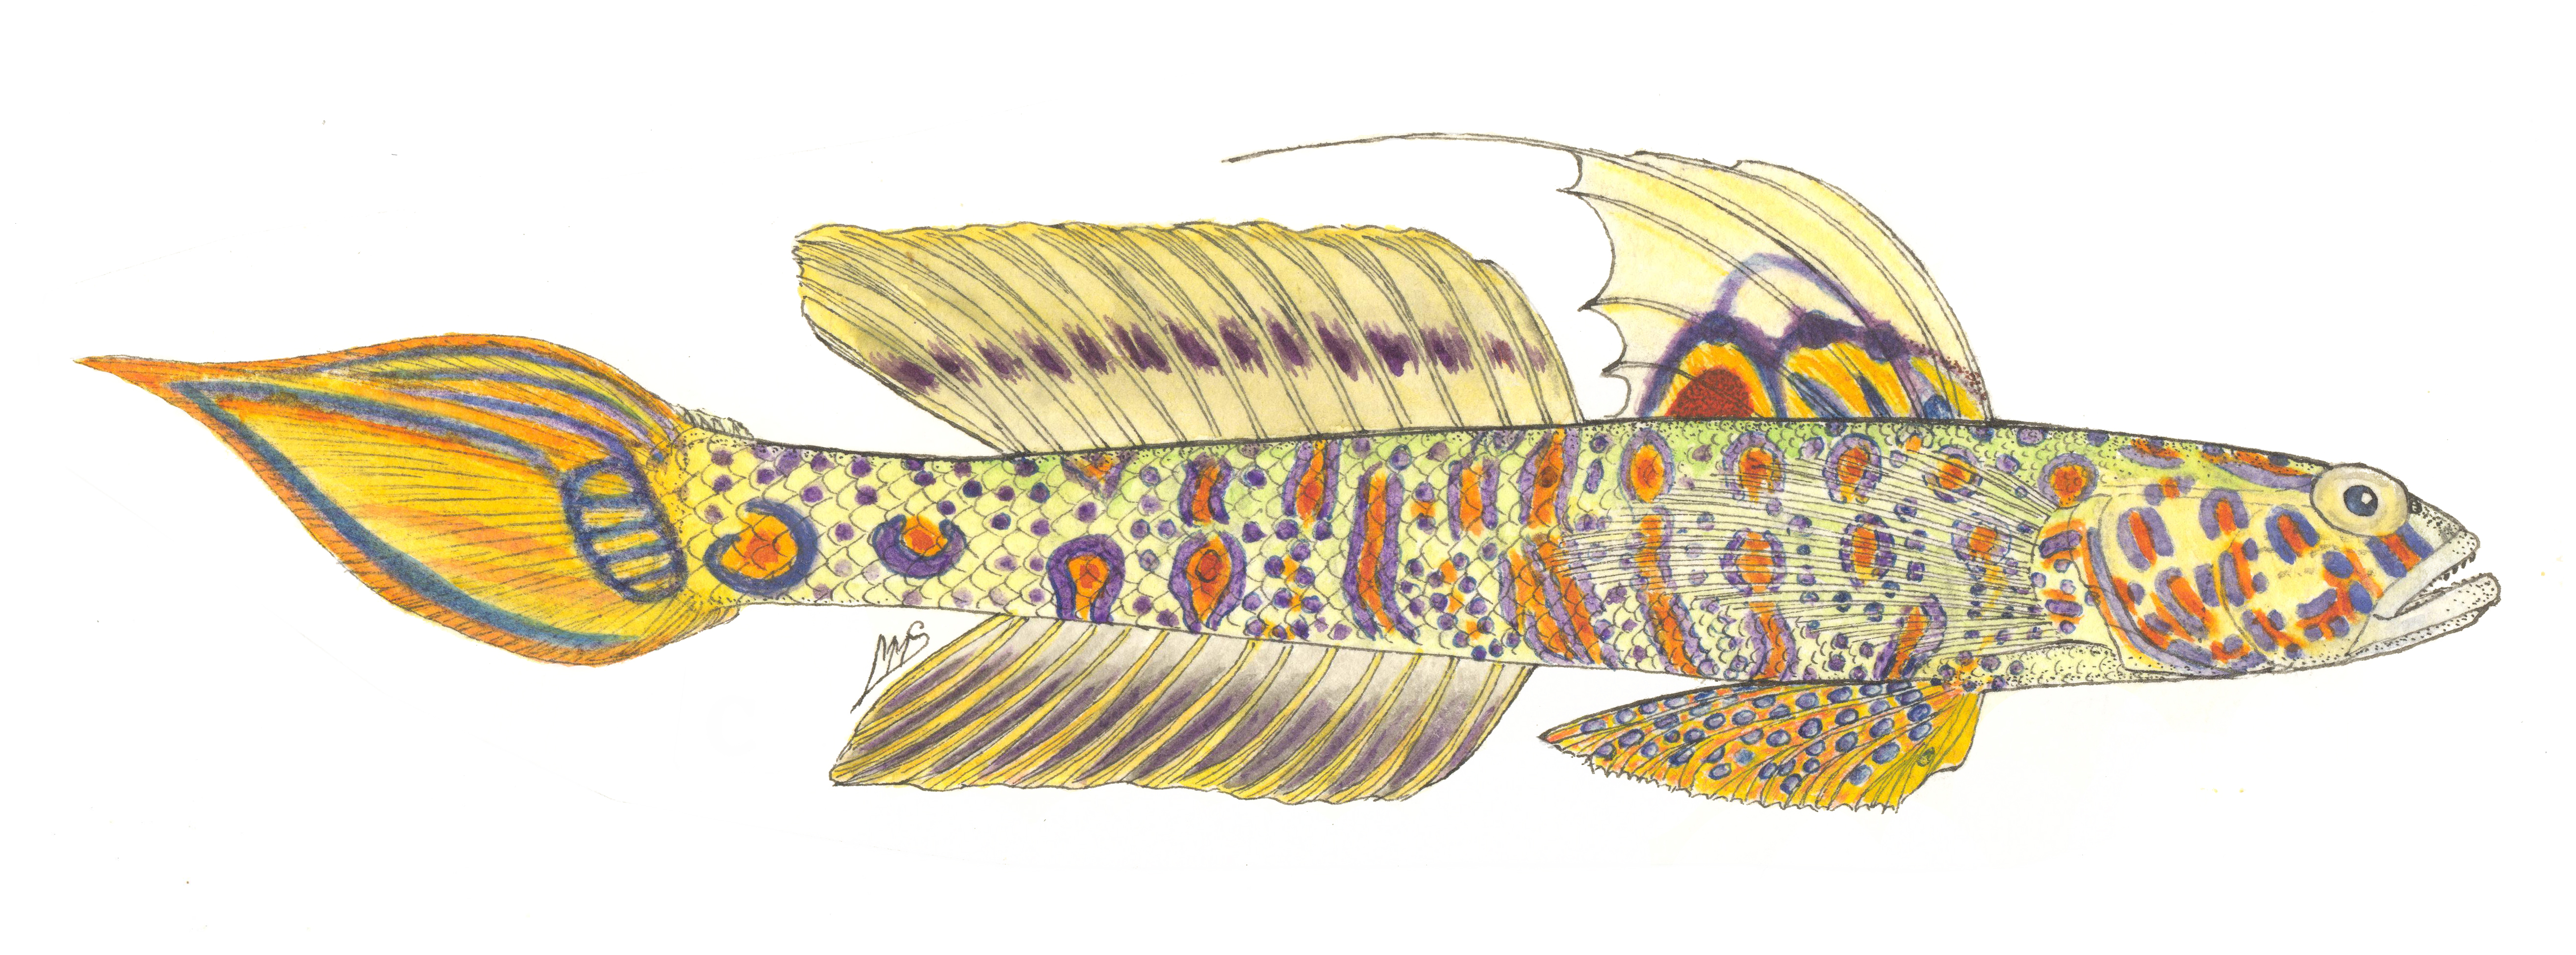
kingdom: Animalia
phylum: Chordata
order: Perciformes
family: Gobiidae
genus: Vanderhorstia
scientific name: Vanderhorstia ornatissima
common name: Blue-barred shrimp-goby
